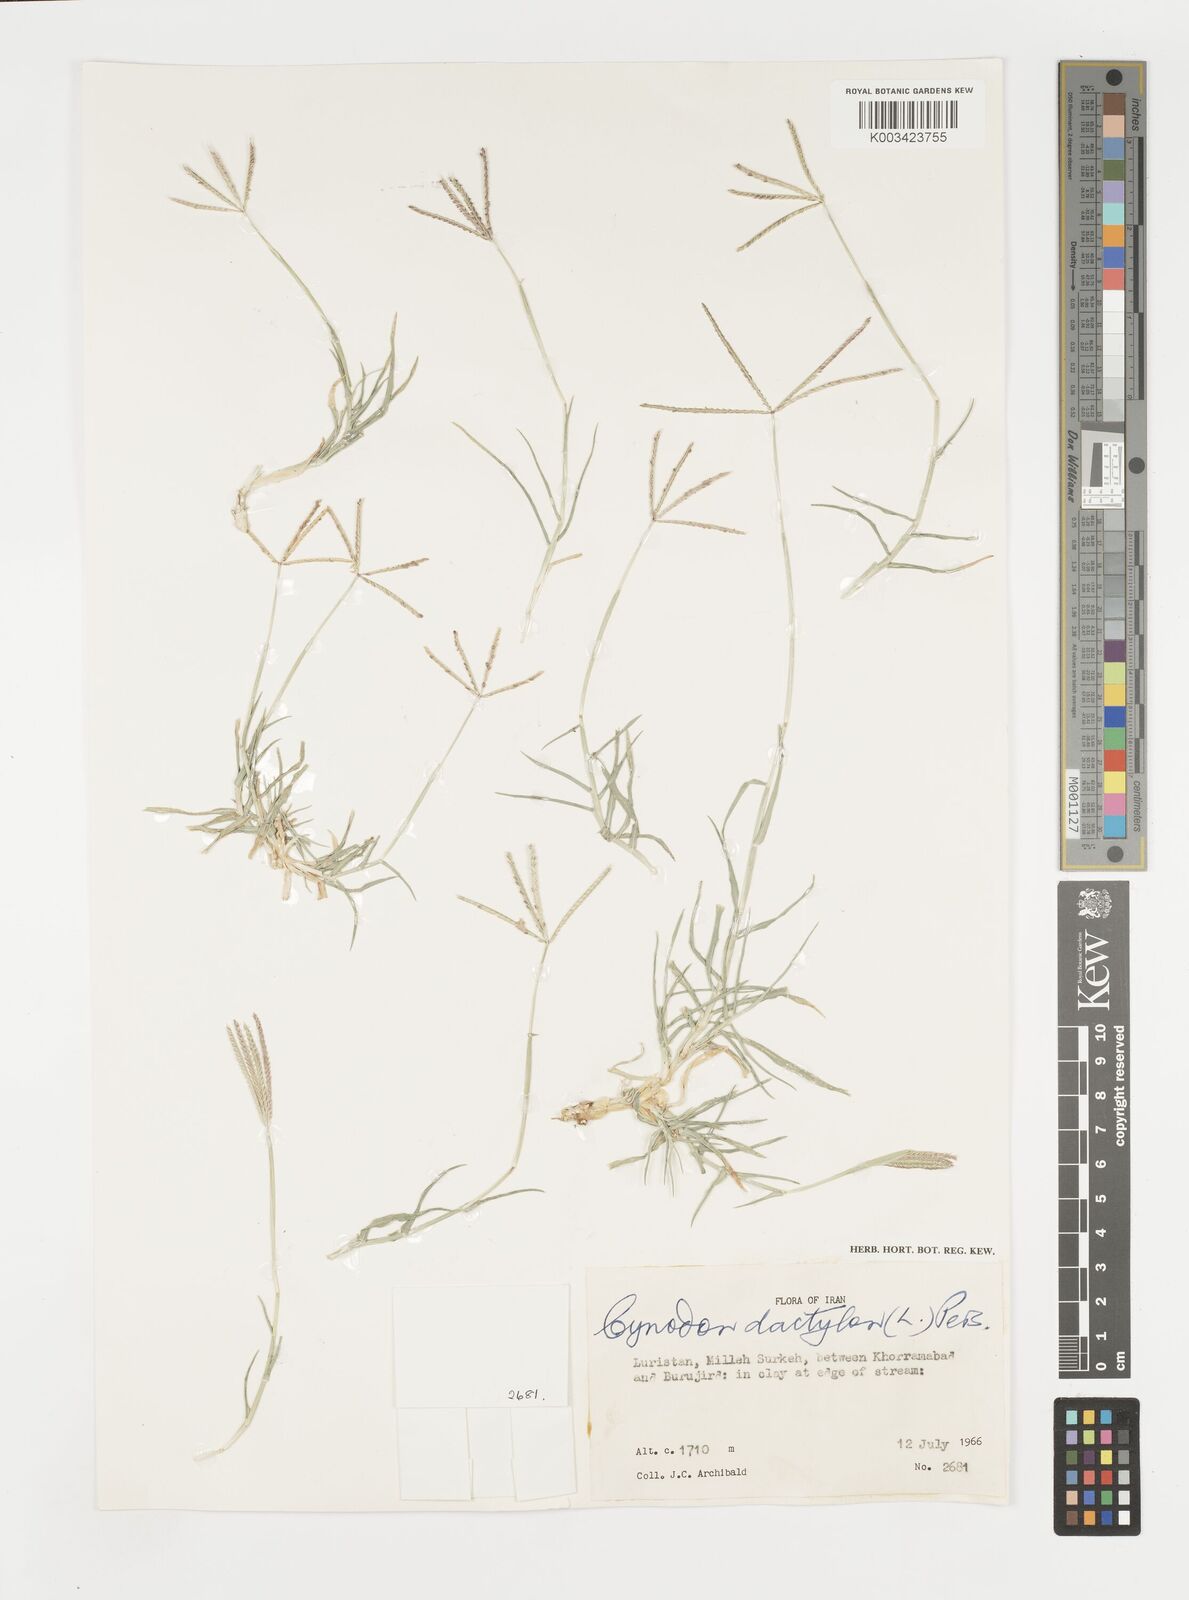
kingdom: Plantae
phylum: Tracheophyta
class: Liliopsida
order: Poales
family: Poaceae
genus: Cynodon
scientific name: Cynodon dactylon
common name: Bermuda grass
